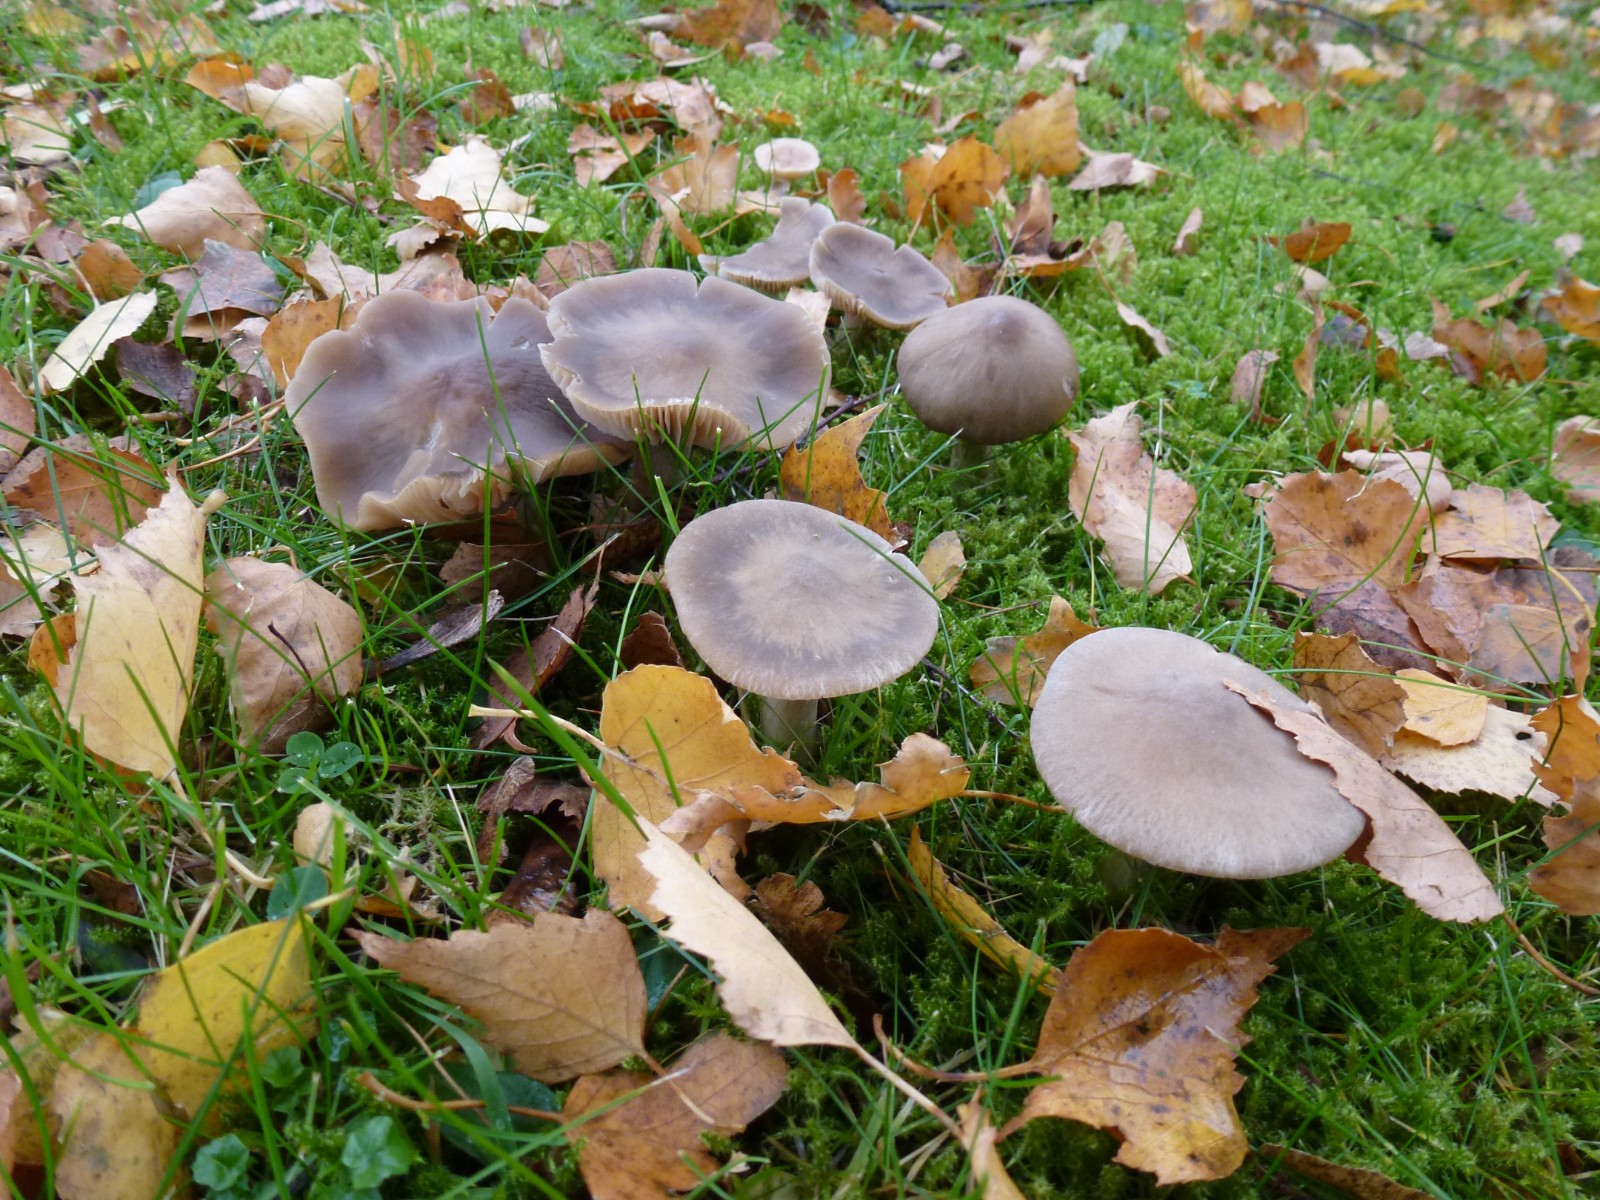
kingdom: Fungi
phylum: Basidiomycota
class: Agaricomycetes
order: Agaricales
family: Entolomataceae
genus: Entoloma
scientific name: Entoloma
